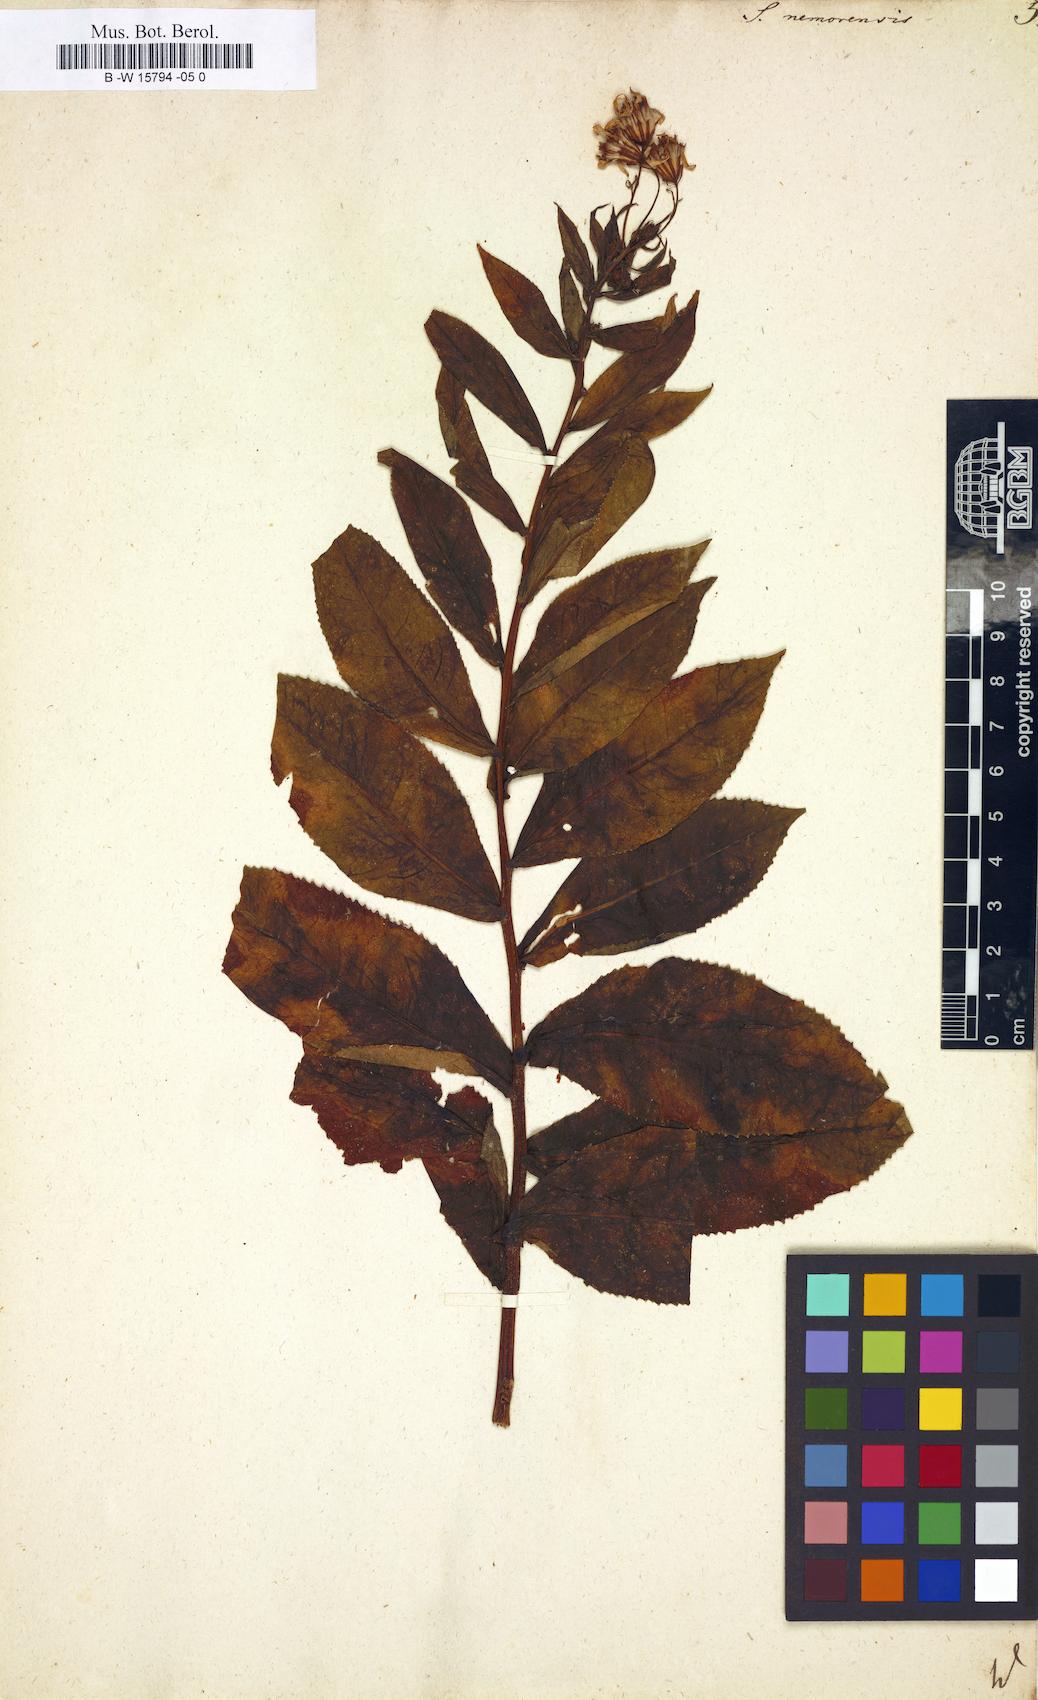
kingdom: Plantae
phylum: Tracheophyta
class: Magnoliopsida
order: Asterales
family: Asteraceae
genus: Senecio
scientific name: Senecio nemorensis
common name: Alpine ragwort
